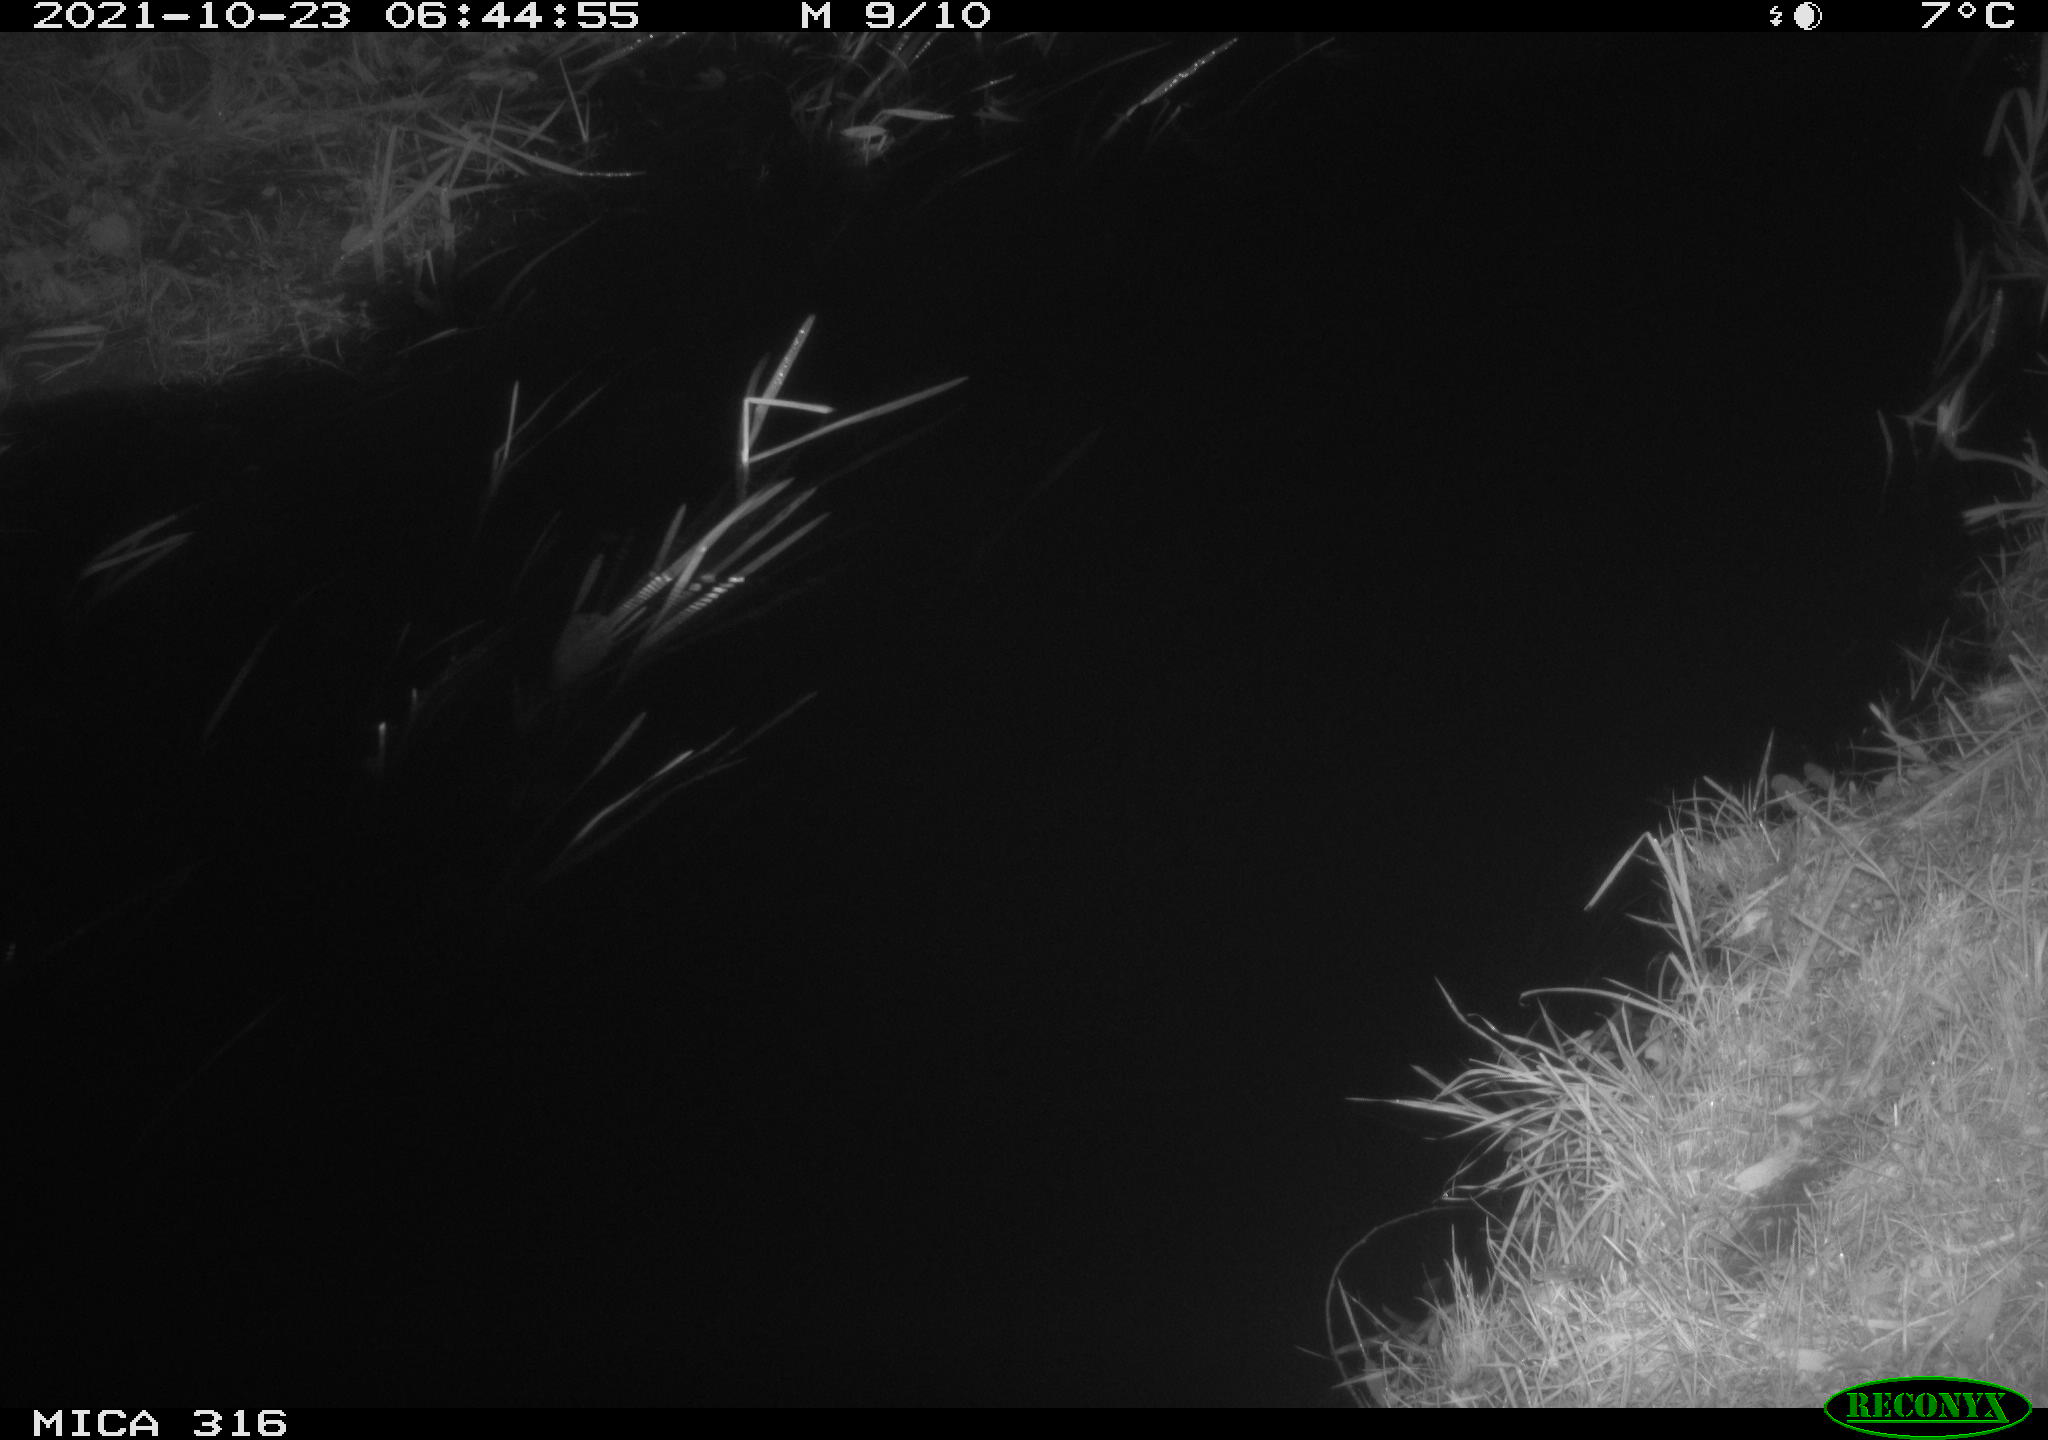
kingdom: Animalia
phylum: Chordata
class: Mammalia
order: Rodentia
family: Muridae
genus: Rattus
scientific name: Rattus norvegicus
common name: Brown rat
